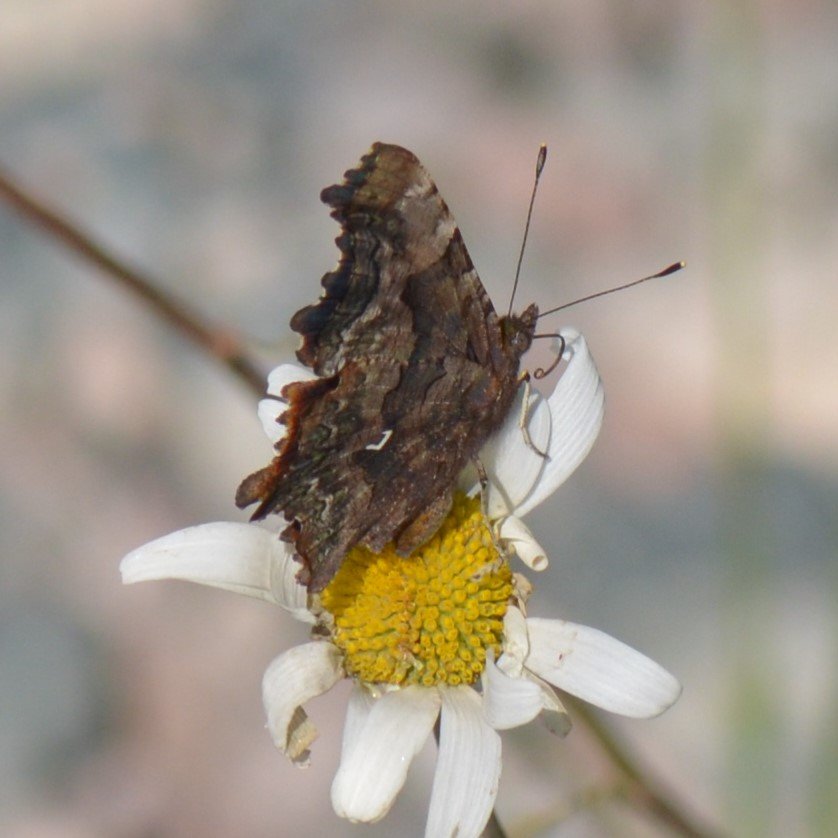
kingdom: Animalia
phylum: Arthropoda
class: Insecta
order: Lepidoptera
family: Nymphalidae
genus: Polygonia
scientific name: Polygonia faunus
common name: Green Comma
